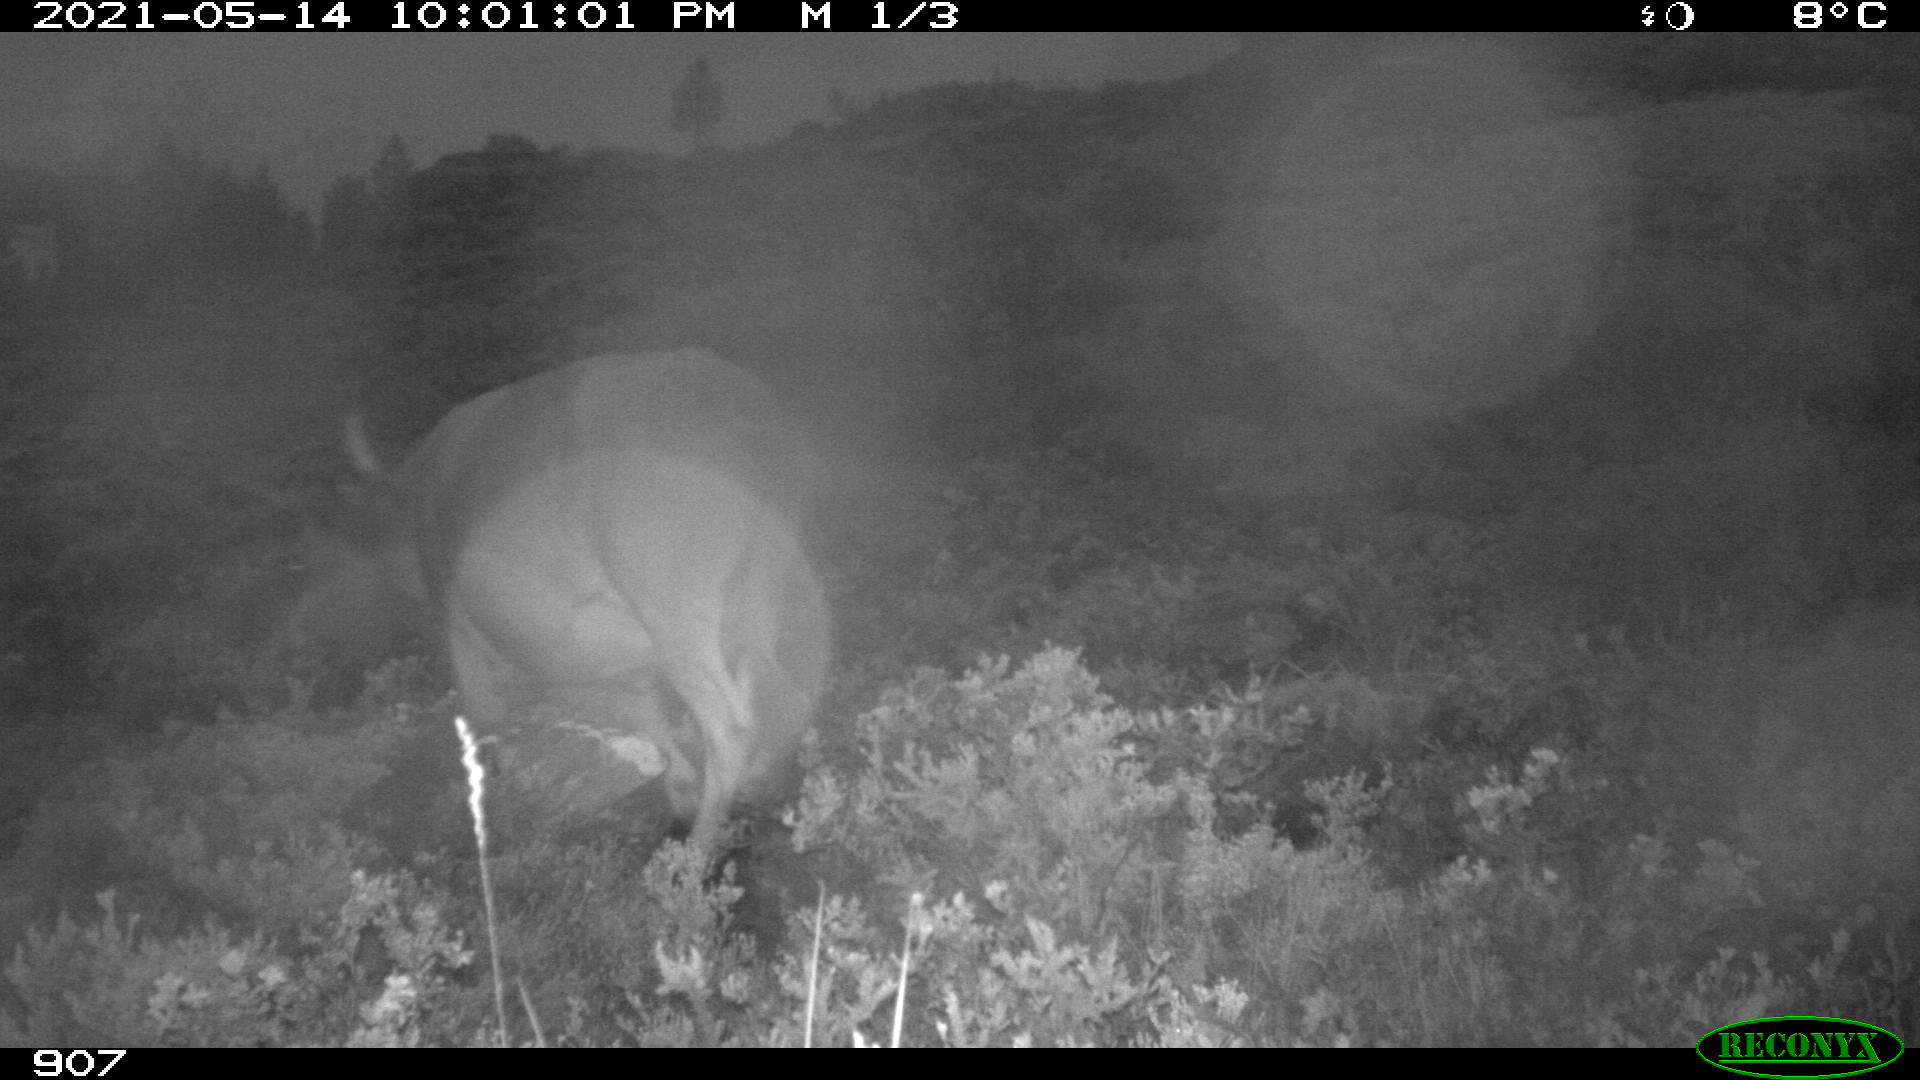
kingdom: Animalia
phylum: Chordata
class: Mammalia
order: Artiodactyla
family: Bovidae
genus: Bos
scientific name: Bos taurus
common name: Domesticated cattle
